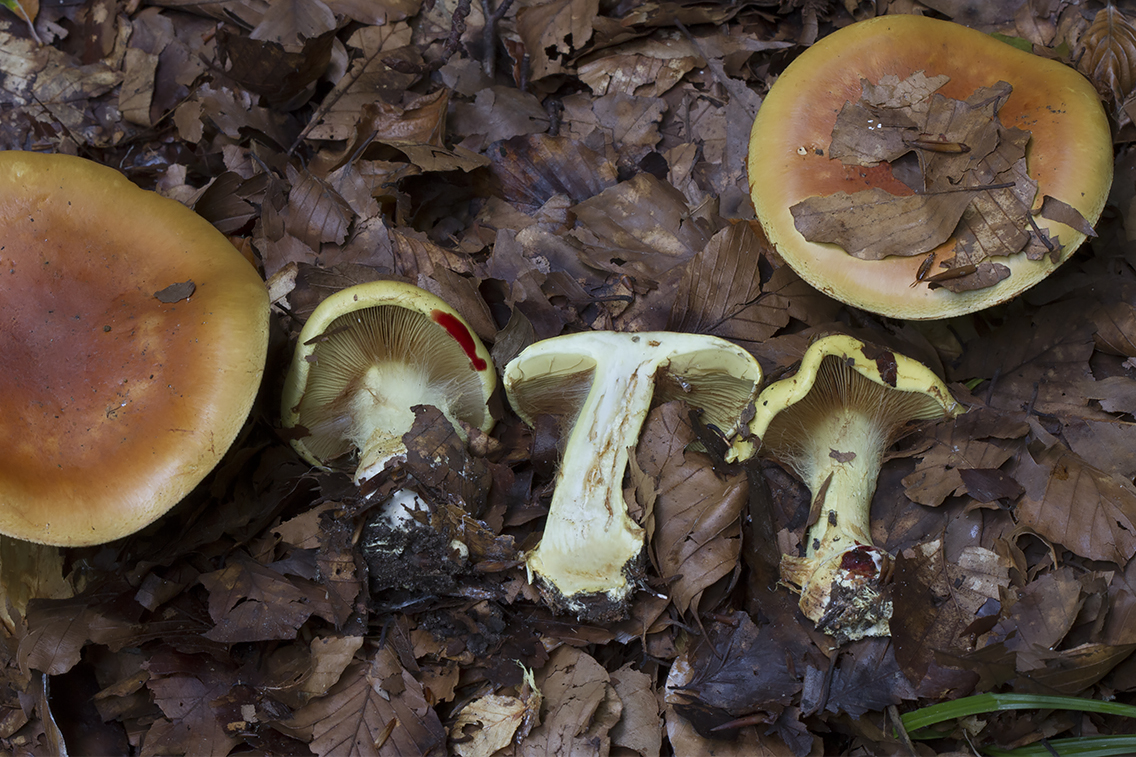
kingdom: Fungi
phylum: Basidiomycota
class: Agaricomycetes
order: Agaricales
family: Cortinariaceae
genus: Calonarius
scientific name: Calonarius elegantissimus
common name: orangegylden slørhat
